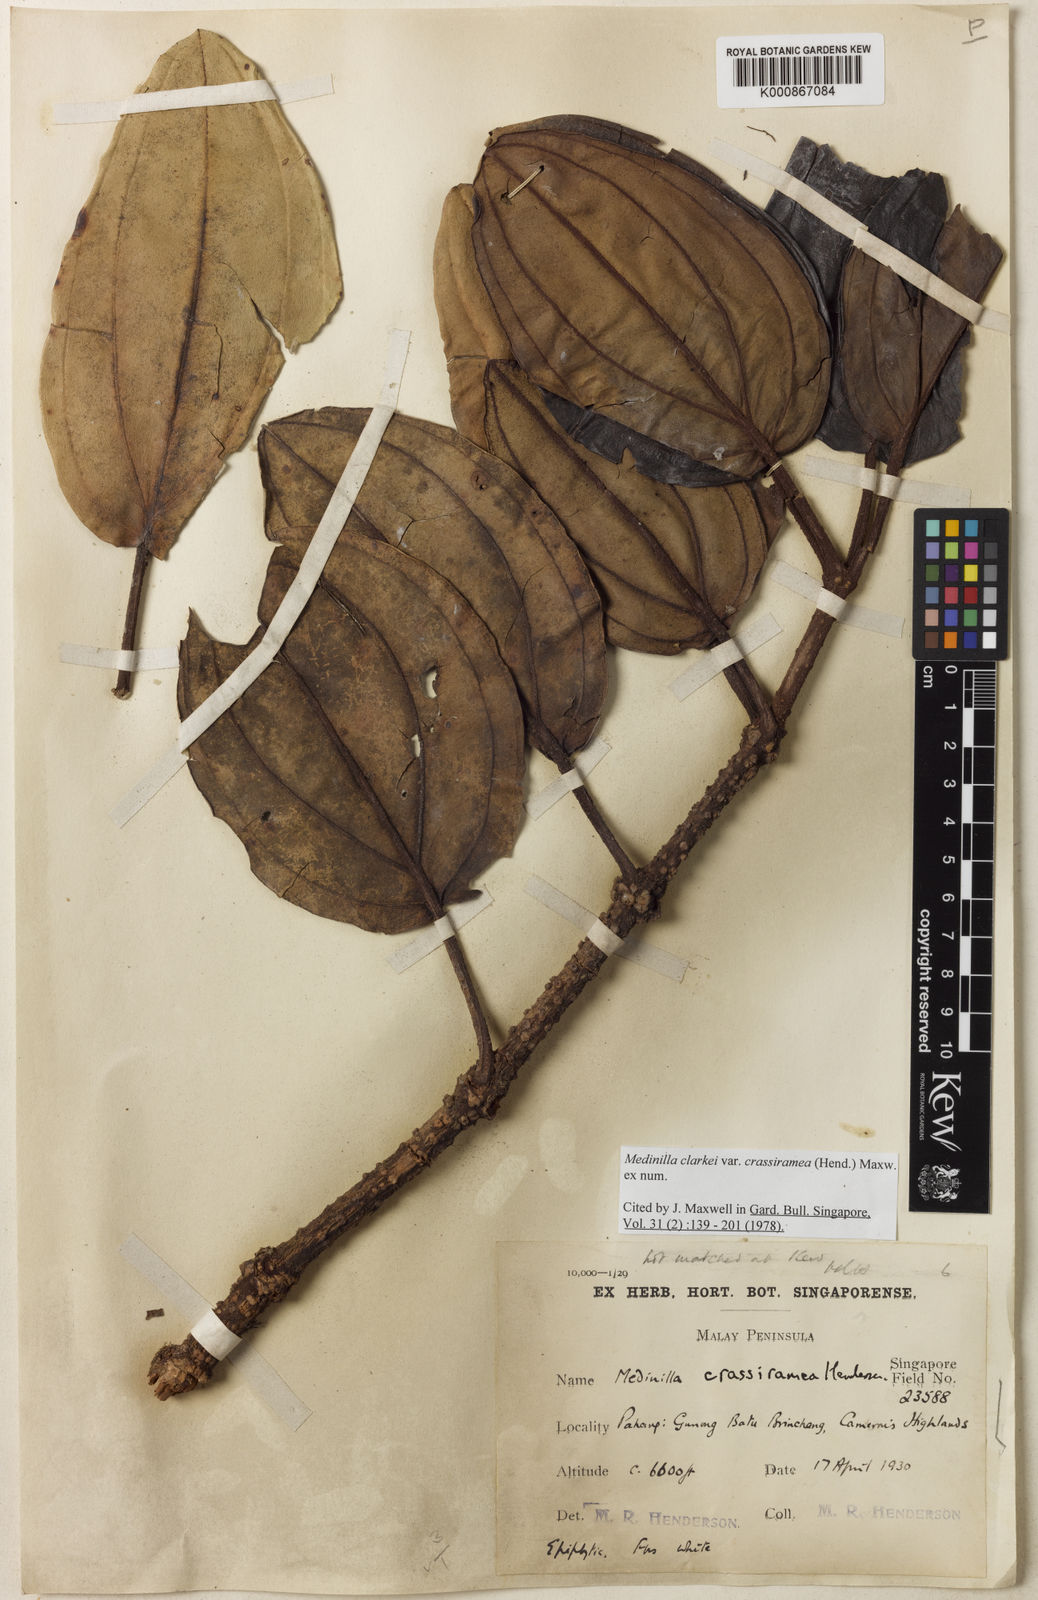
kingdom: Plantae
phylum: Tracheophyta
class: Magnoliopsida
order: Myrtales
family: Melastomataceae
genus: Medinilla
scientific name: Medinilla clarkei
